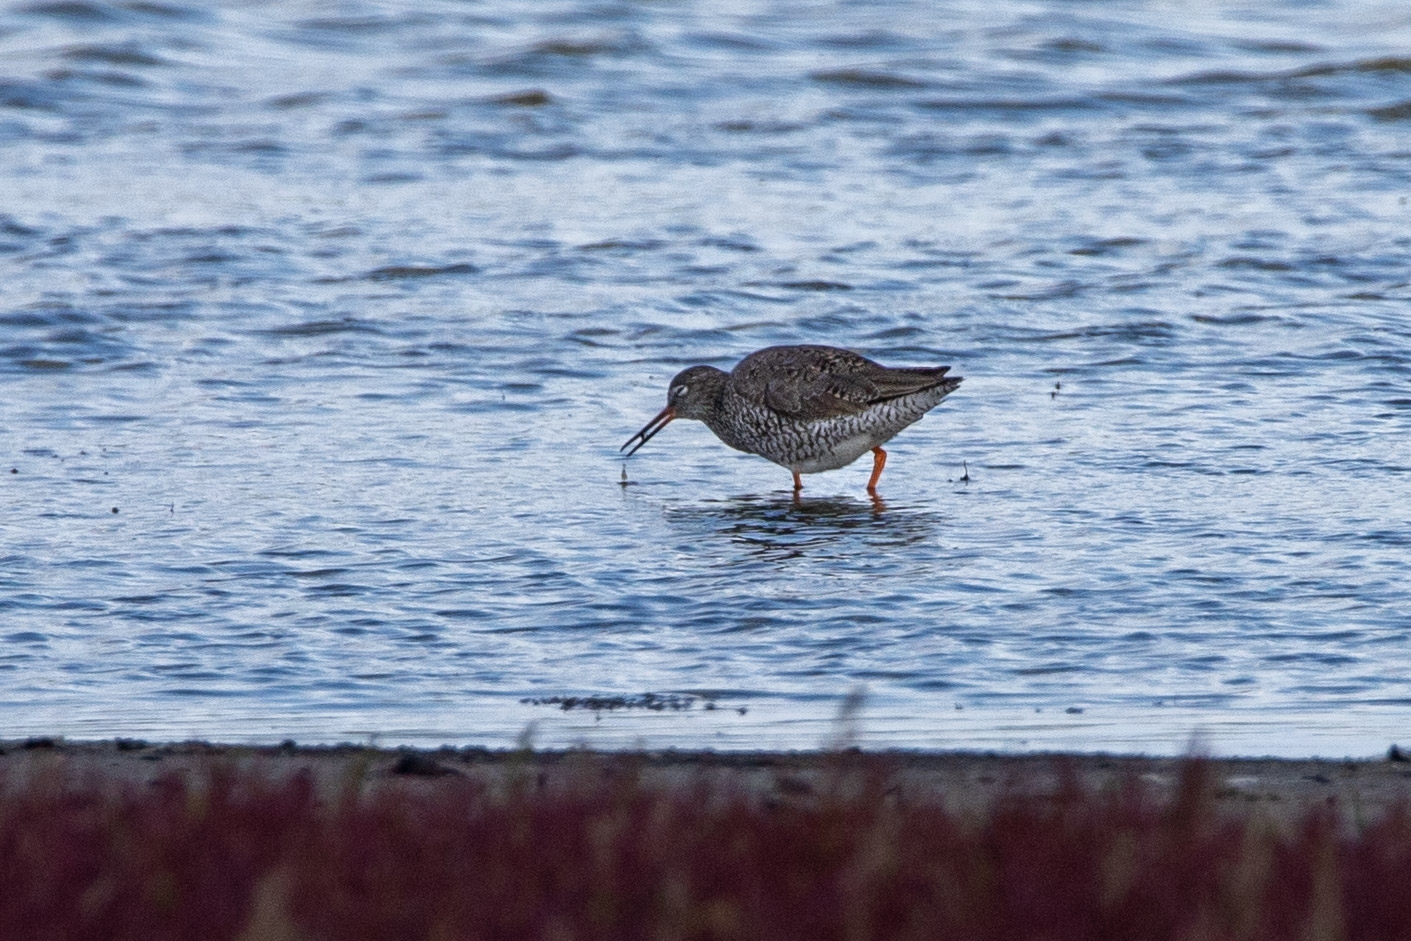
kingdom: Animalia
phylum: Chordata
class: Aves
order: Charadriiformes
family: Scolopacidae
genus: Tringa
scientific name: Tringa totanus
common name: Rødben
